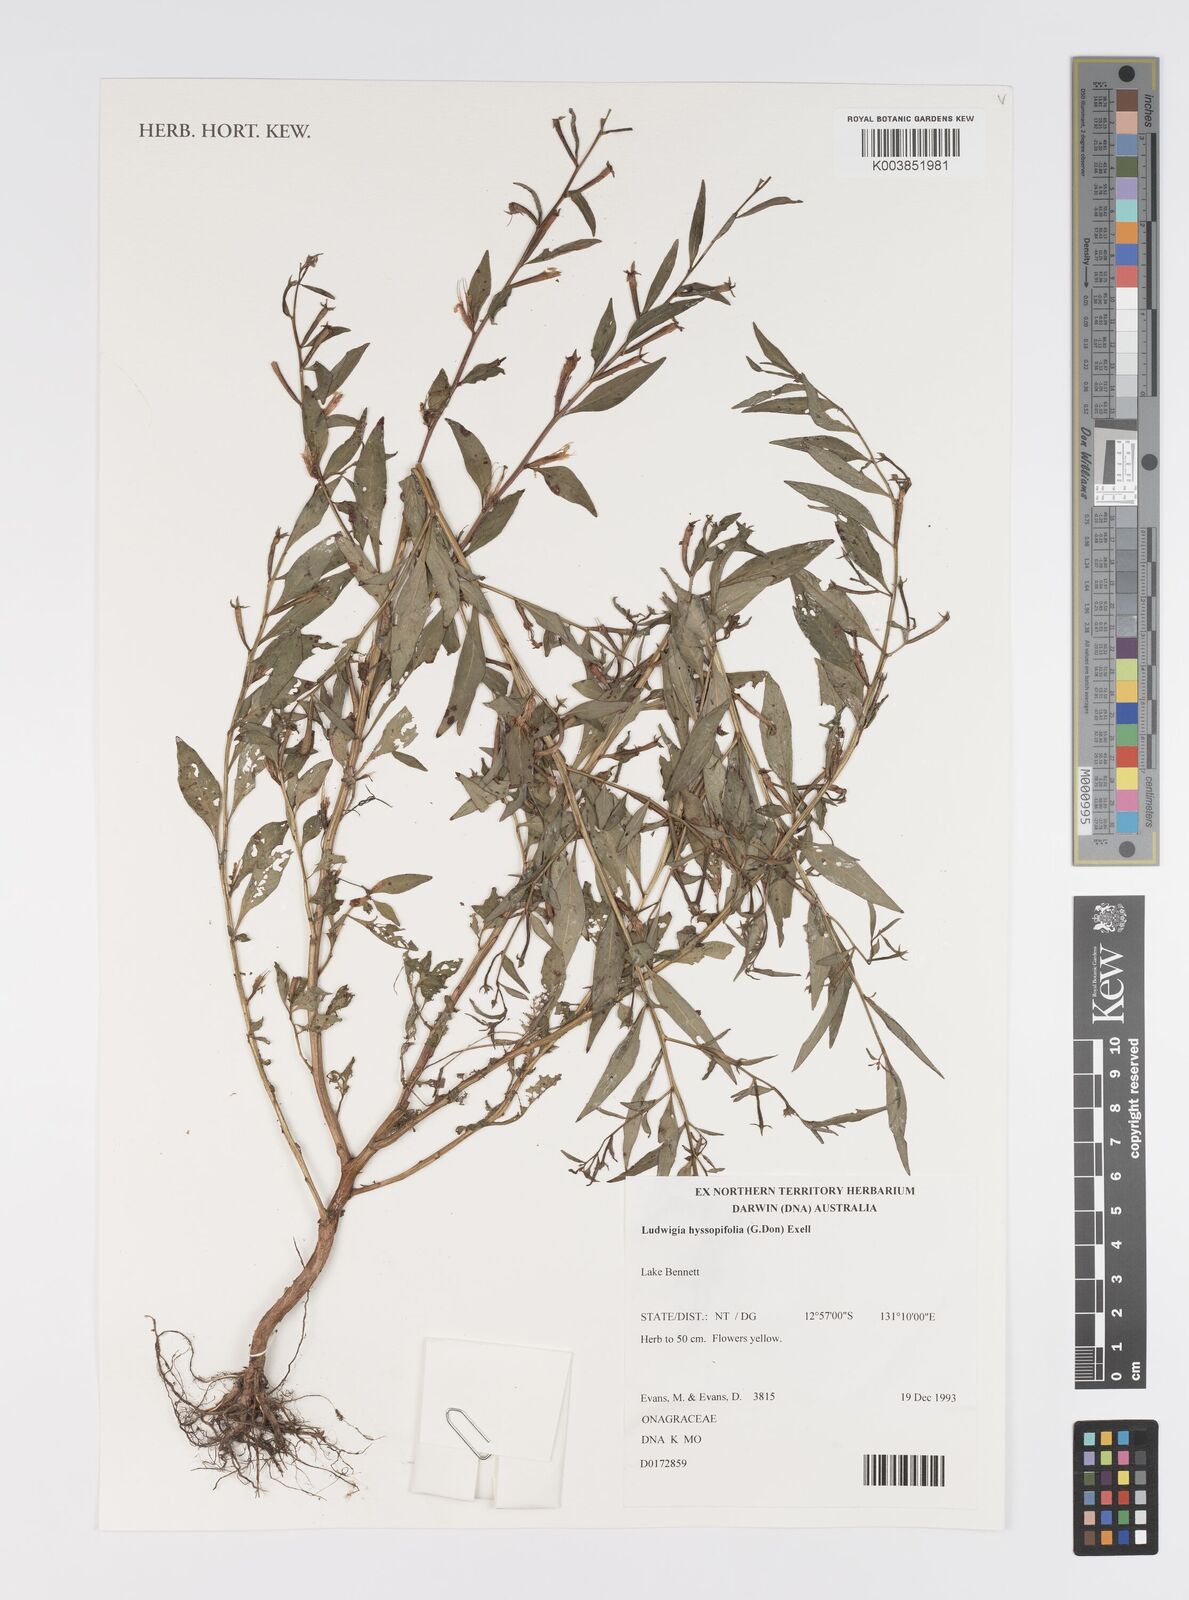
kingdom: Plantae
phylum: Tracheophyta
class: Magnoliopsida
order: Myrtales
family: Onagraceae
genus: Ludwigia
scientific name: Ludwigia hyssopifolia
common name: Linear leaf water primrose
